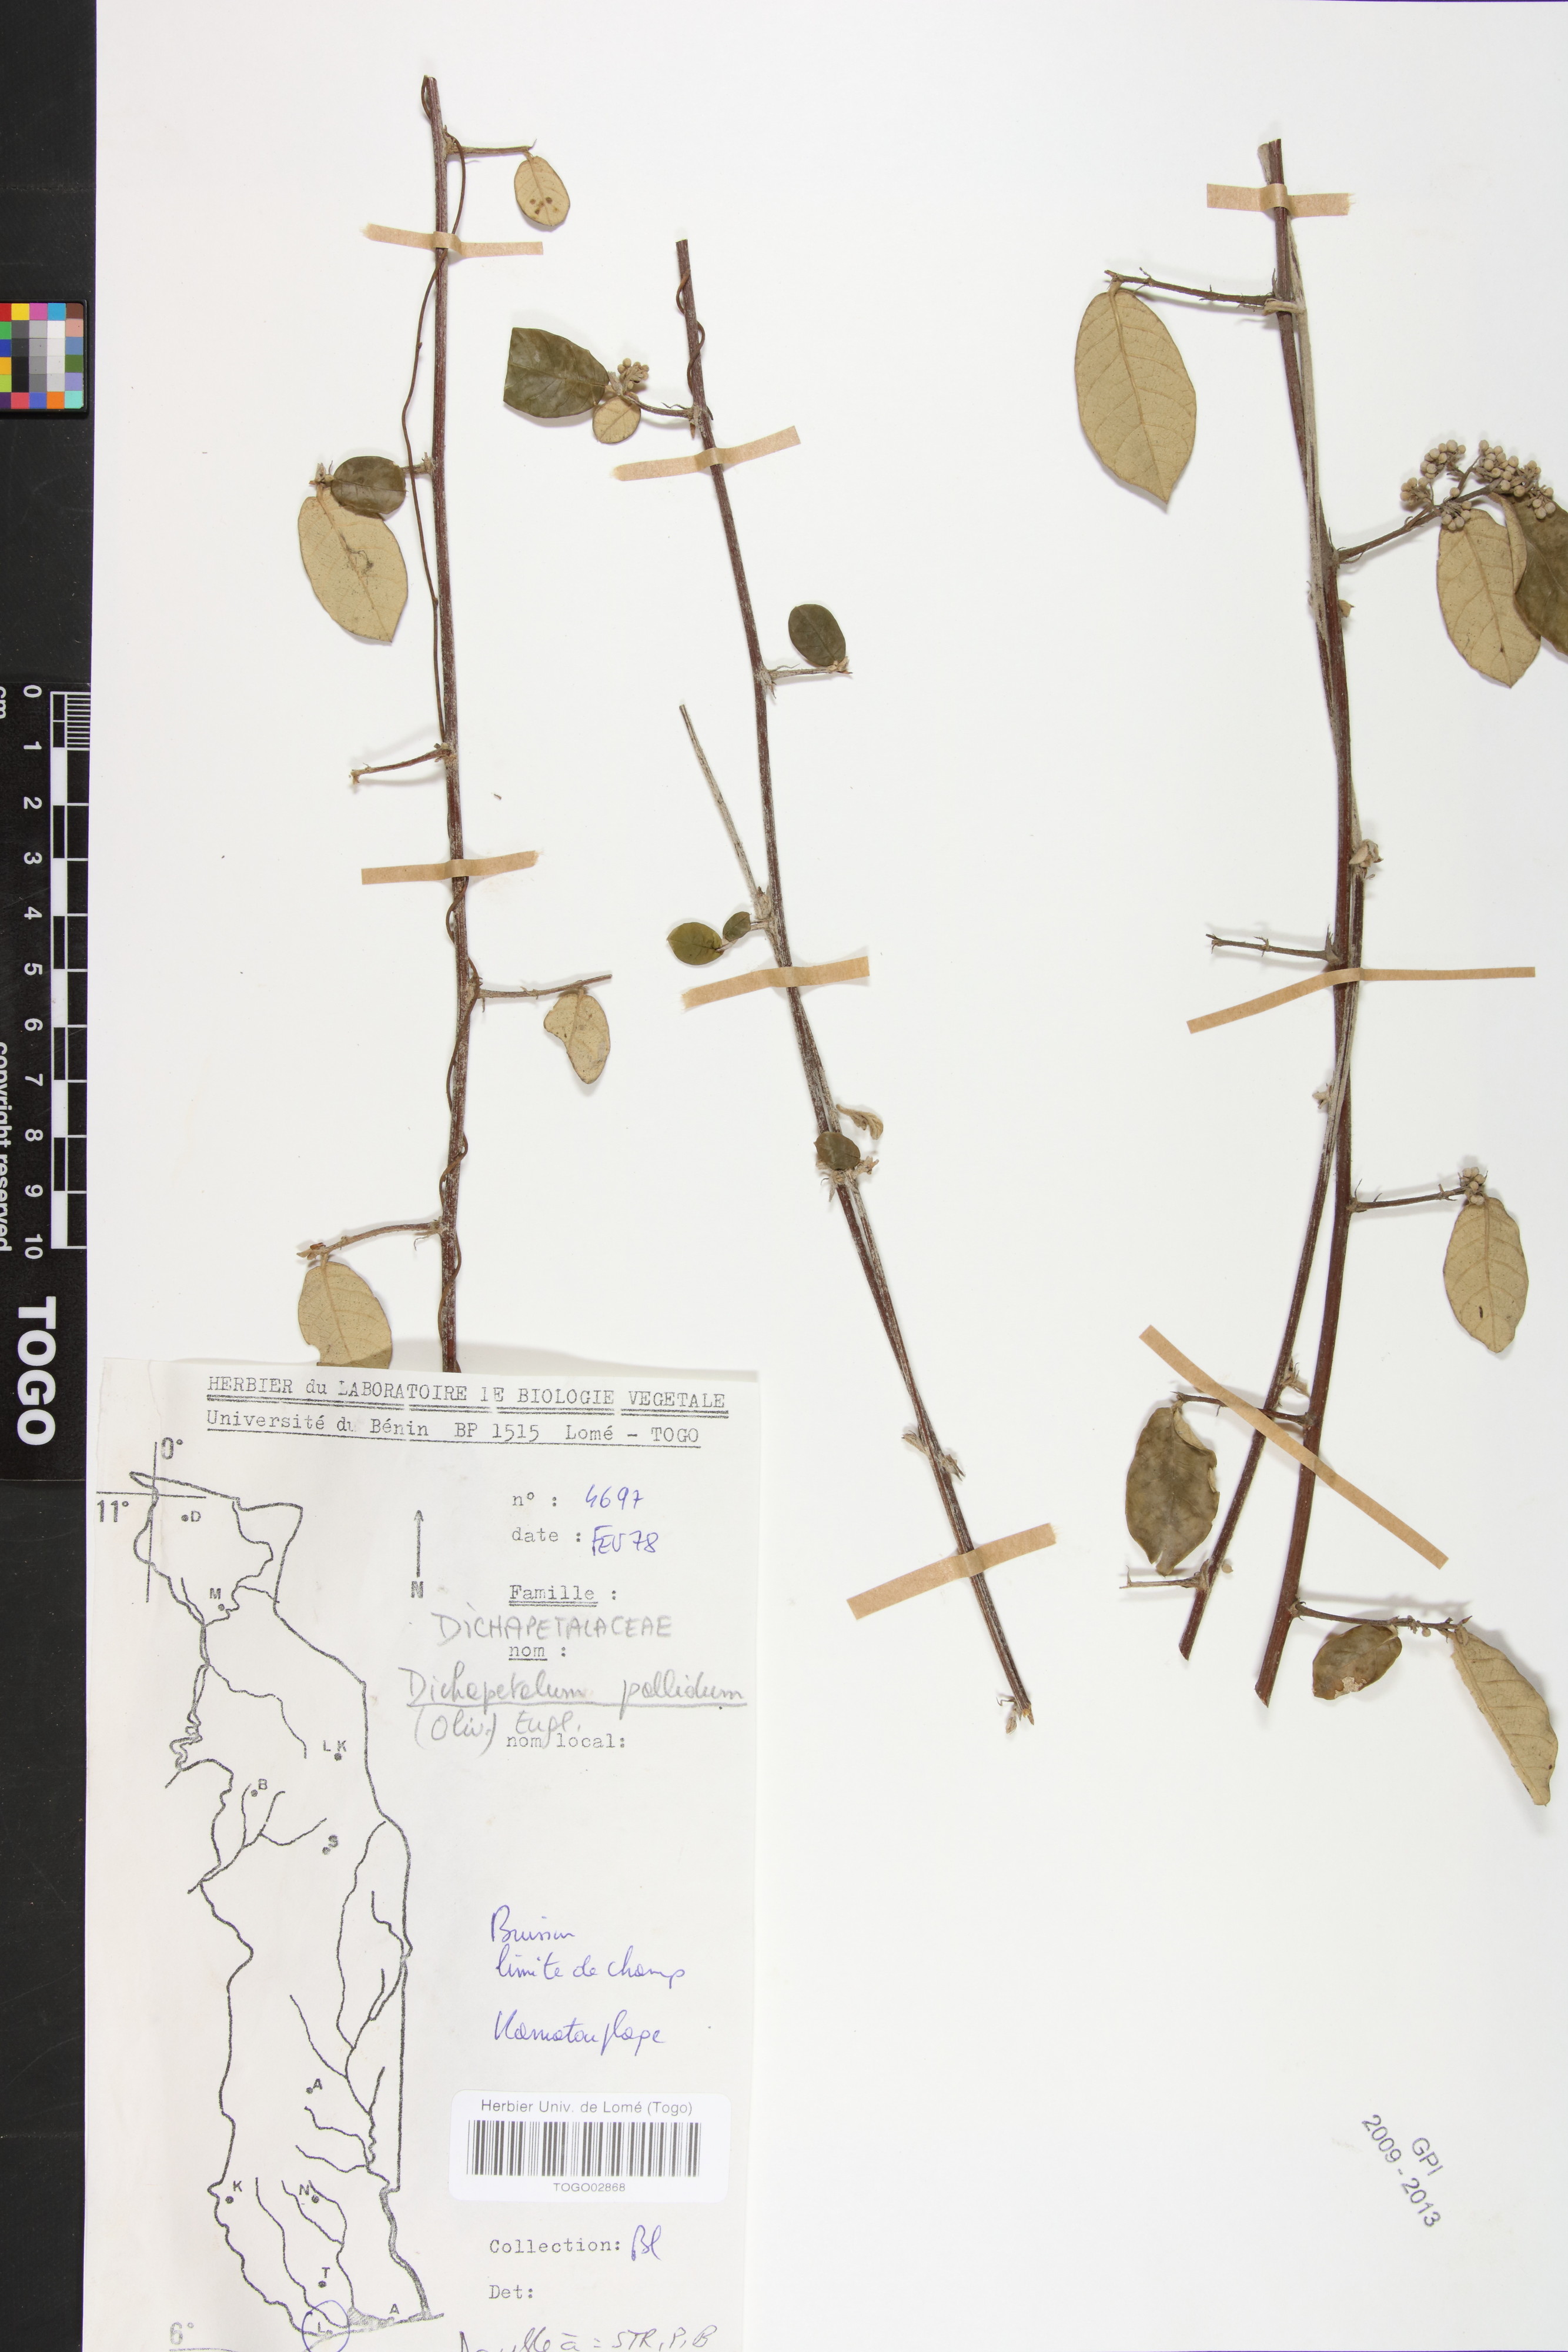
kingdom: Plantae
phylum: Tracheophyta
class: Magnoliopsida
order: Malpighiales
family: Dichapetalaceae
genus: Dichapetalum
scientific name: Dichapetalum pallidum
